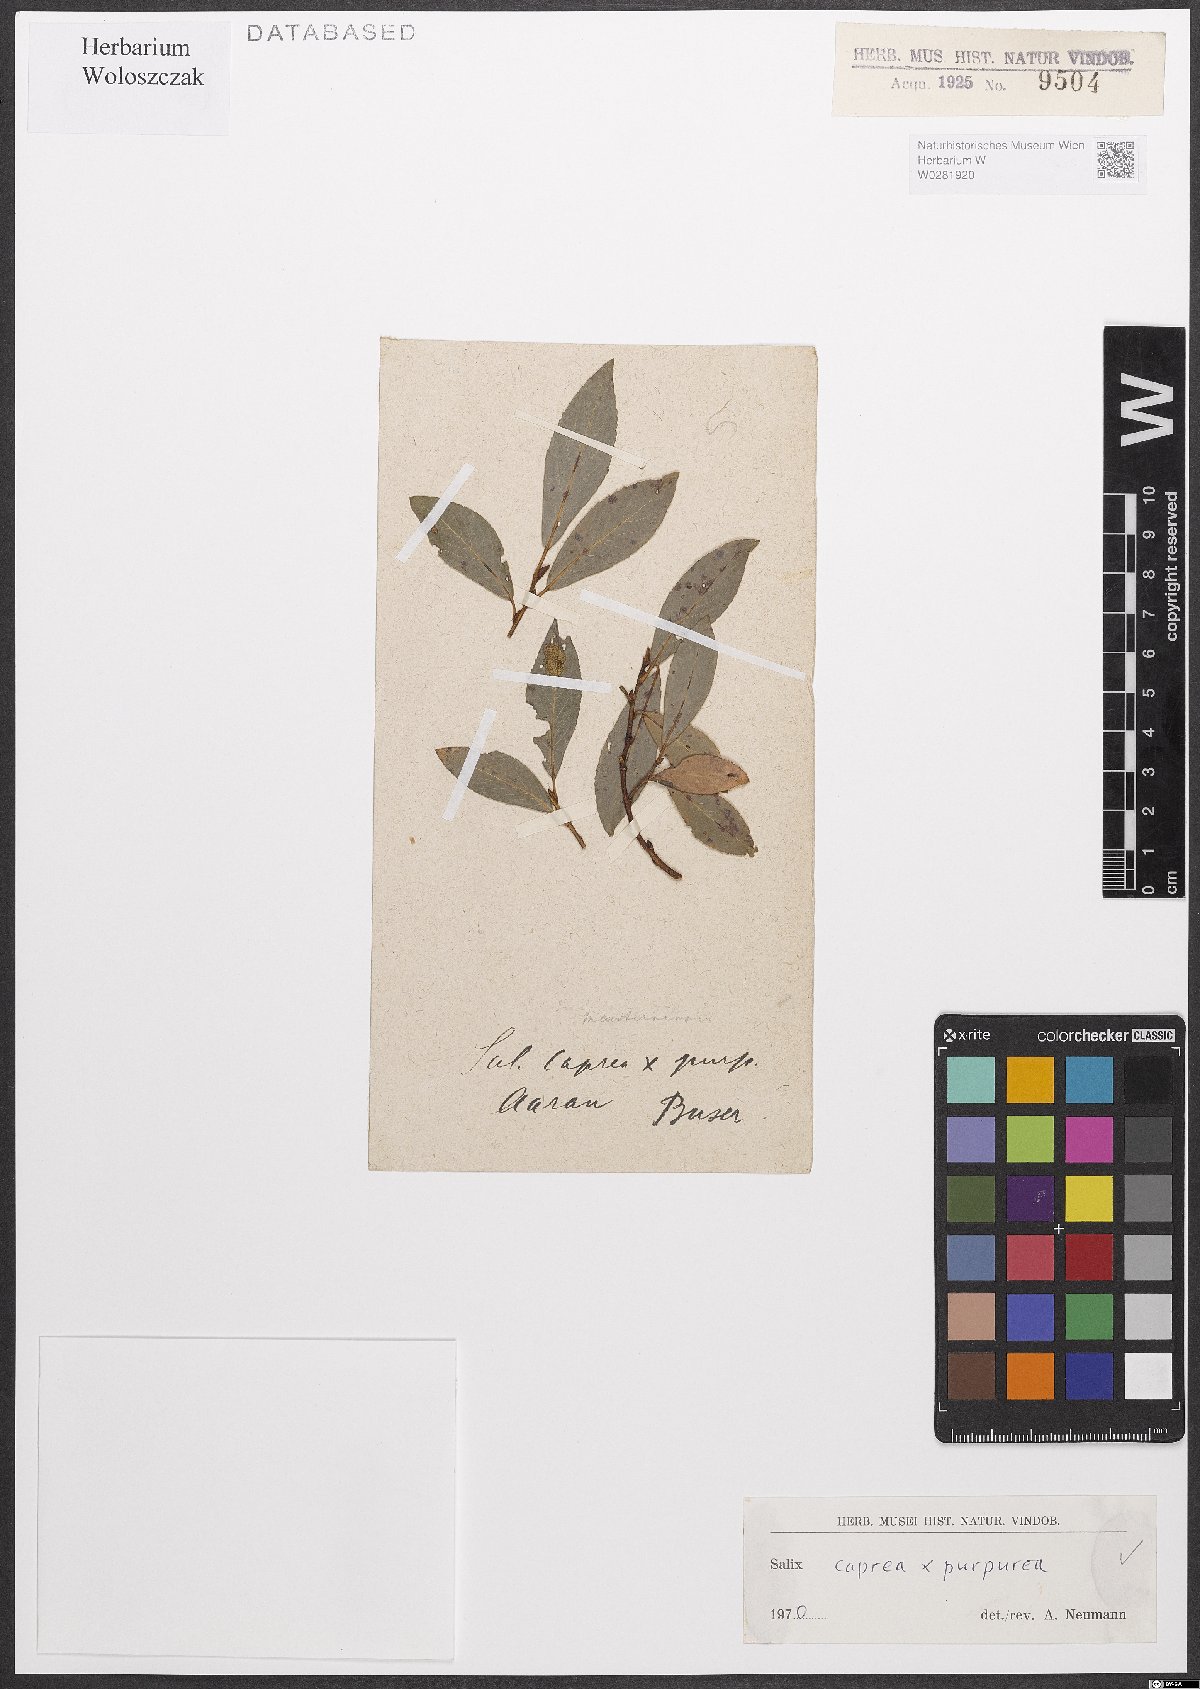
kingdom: Plantae
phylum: Tracheophyta
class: Magnoliopsida
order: Malpighiales
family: Salicaceae
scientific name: Salicaceae
